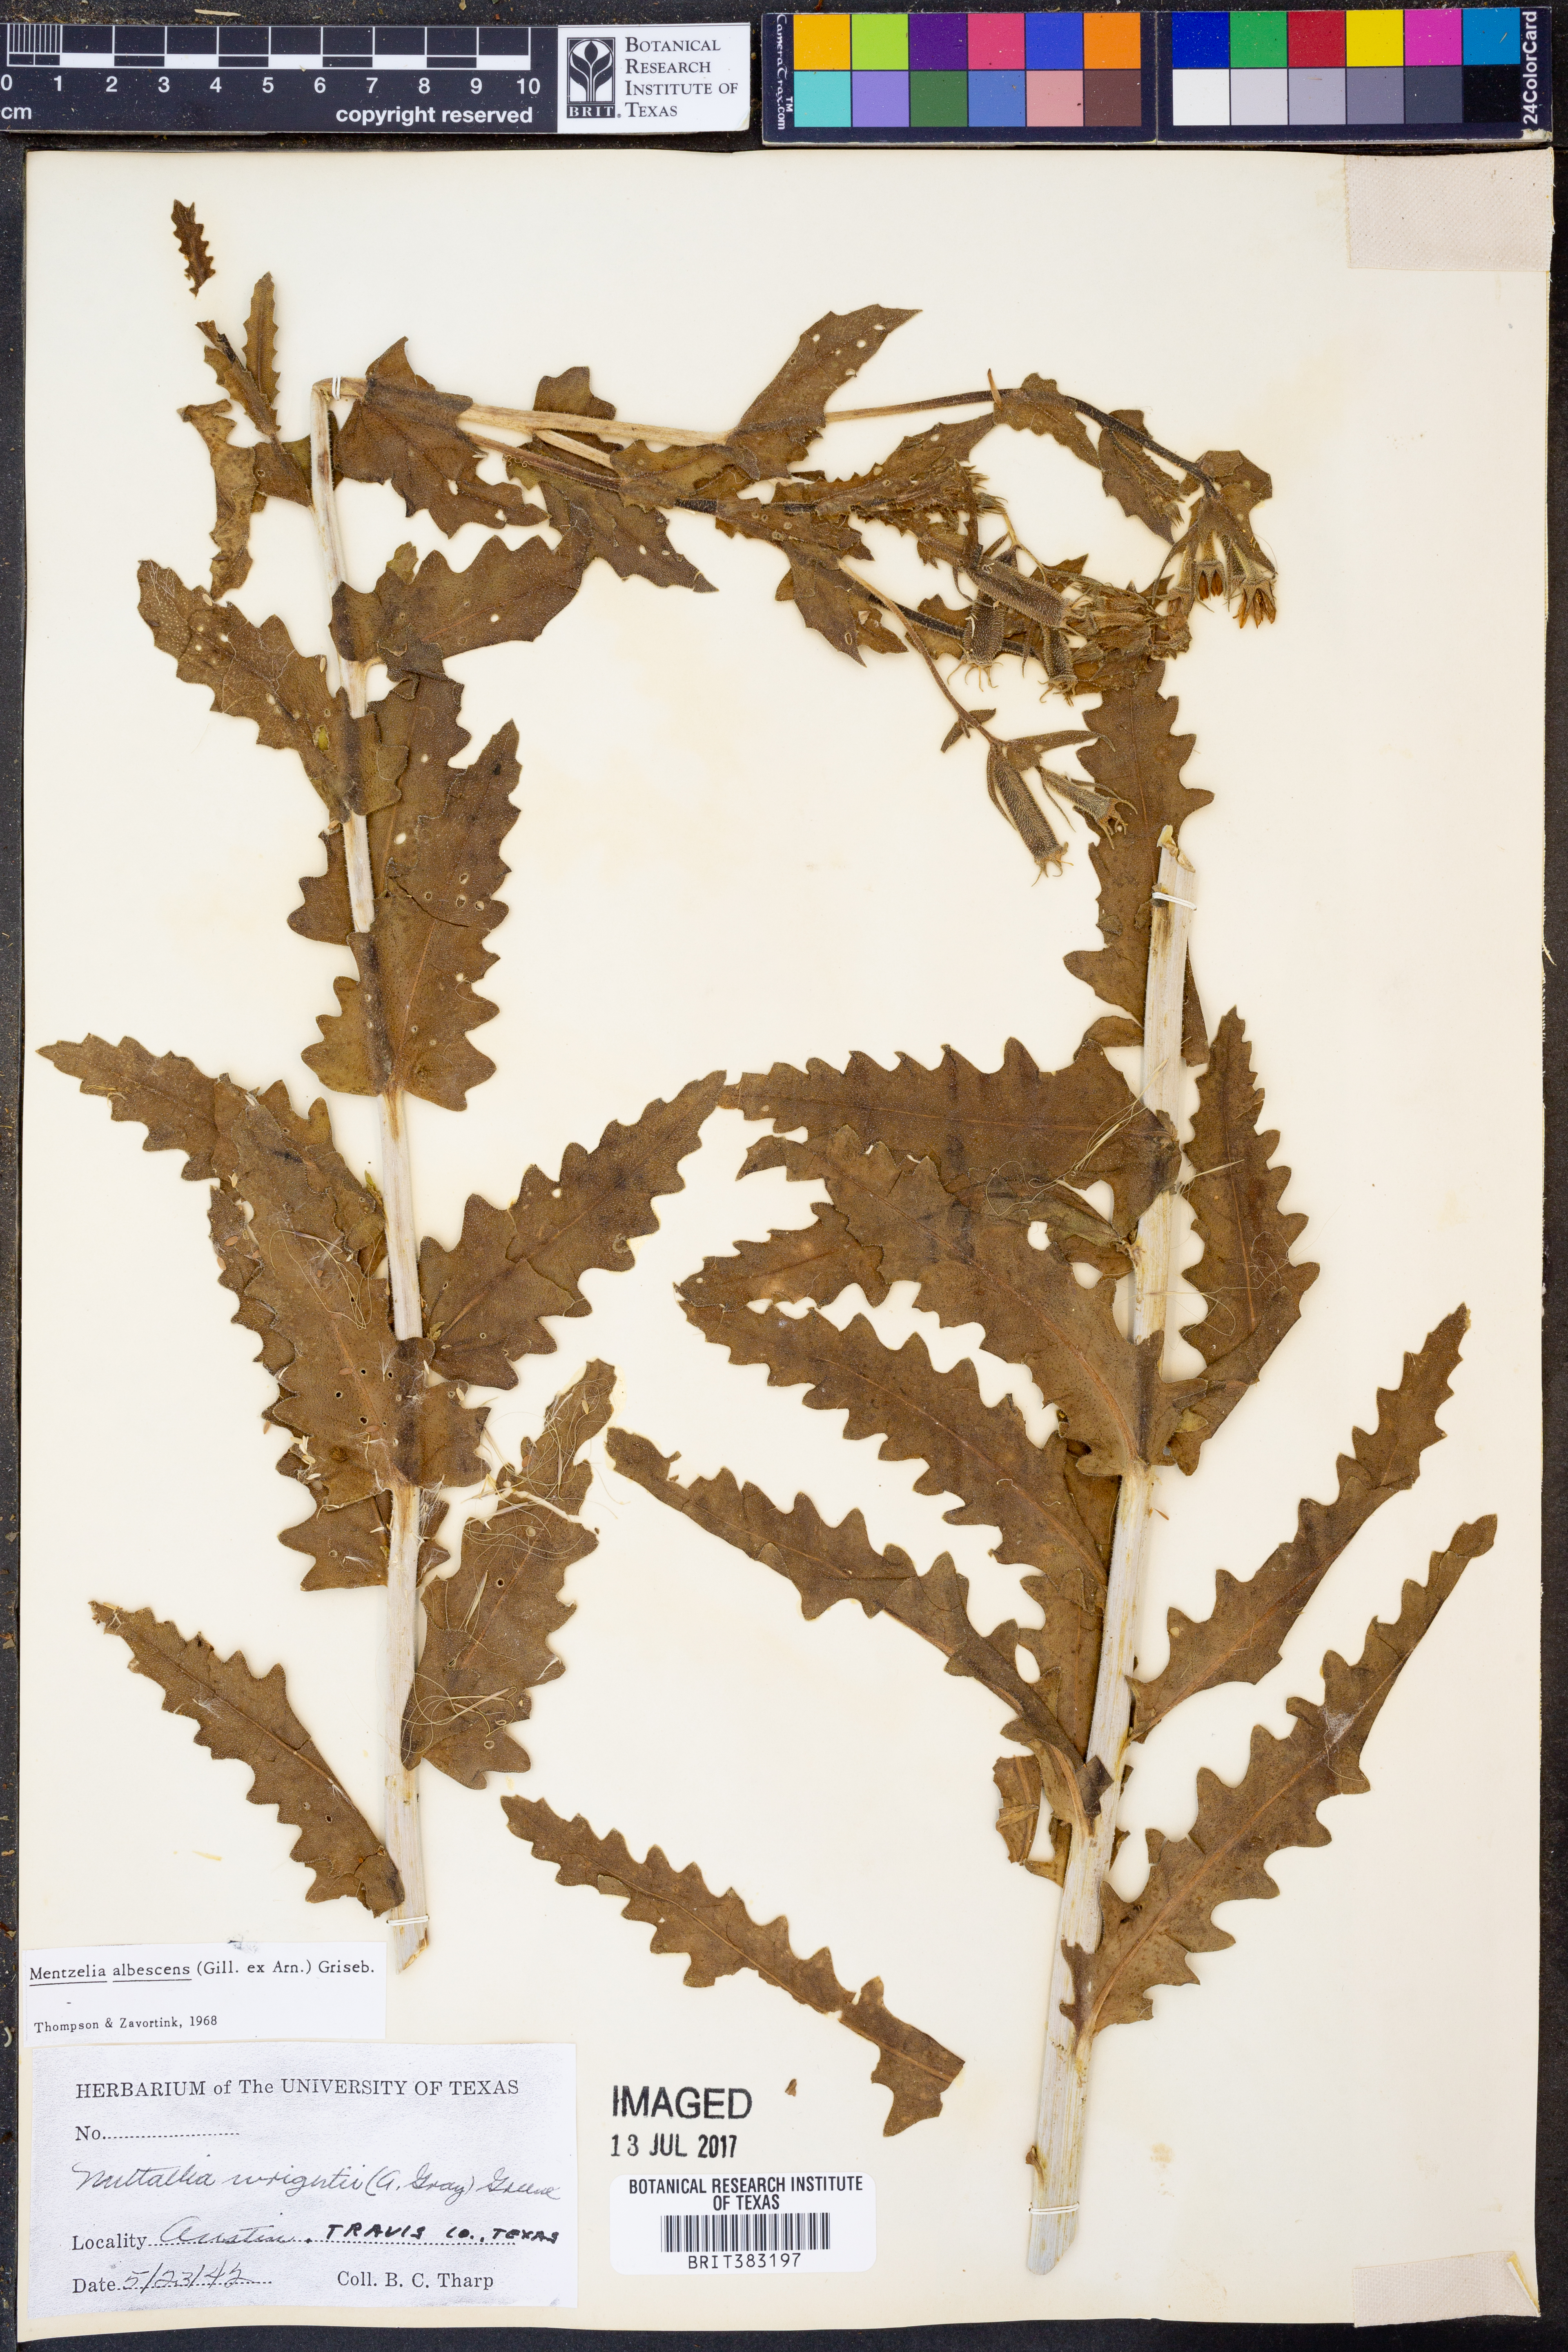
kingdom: Plantae
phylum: Tracheophyta
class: Magnoliopsida
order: Cornales
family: Loasaceae
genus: Mentzelia
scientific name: Mentzelia albescens
